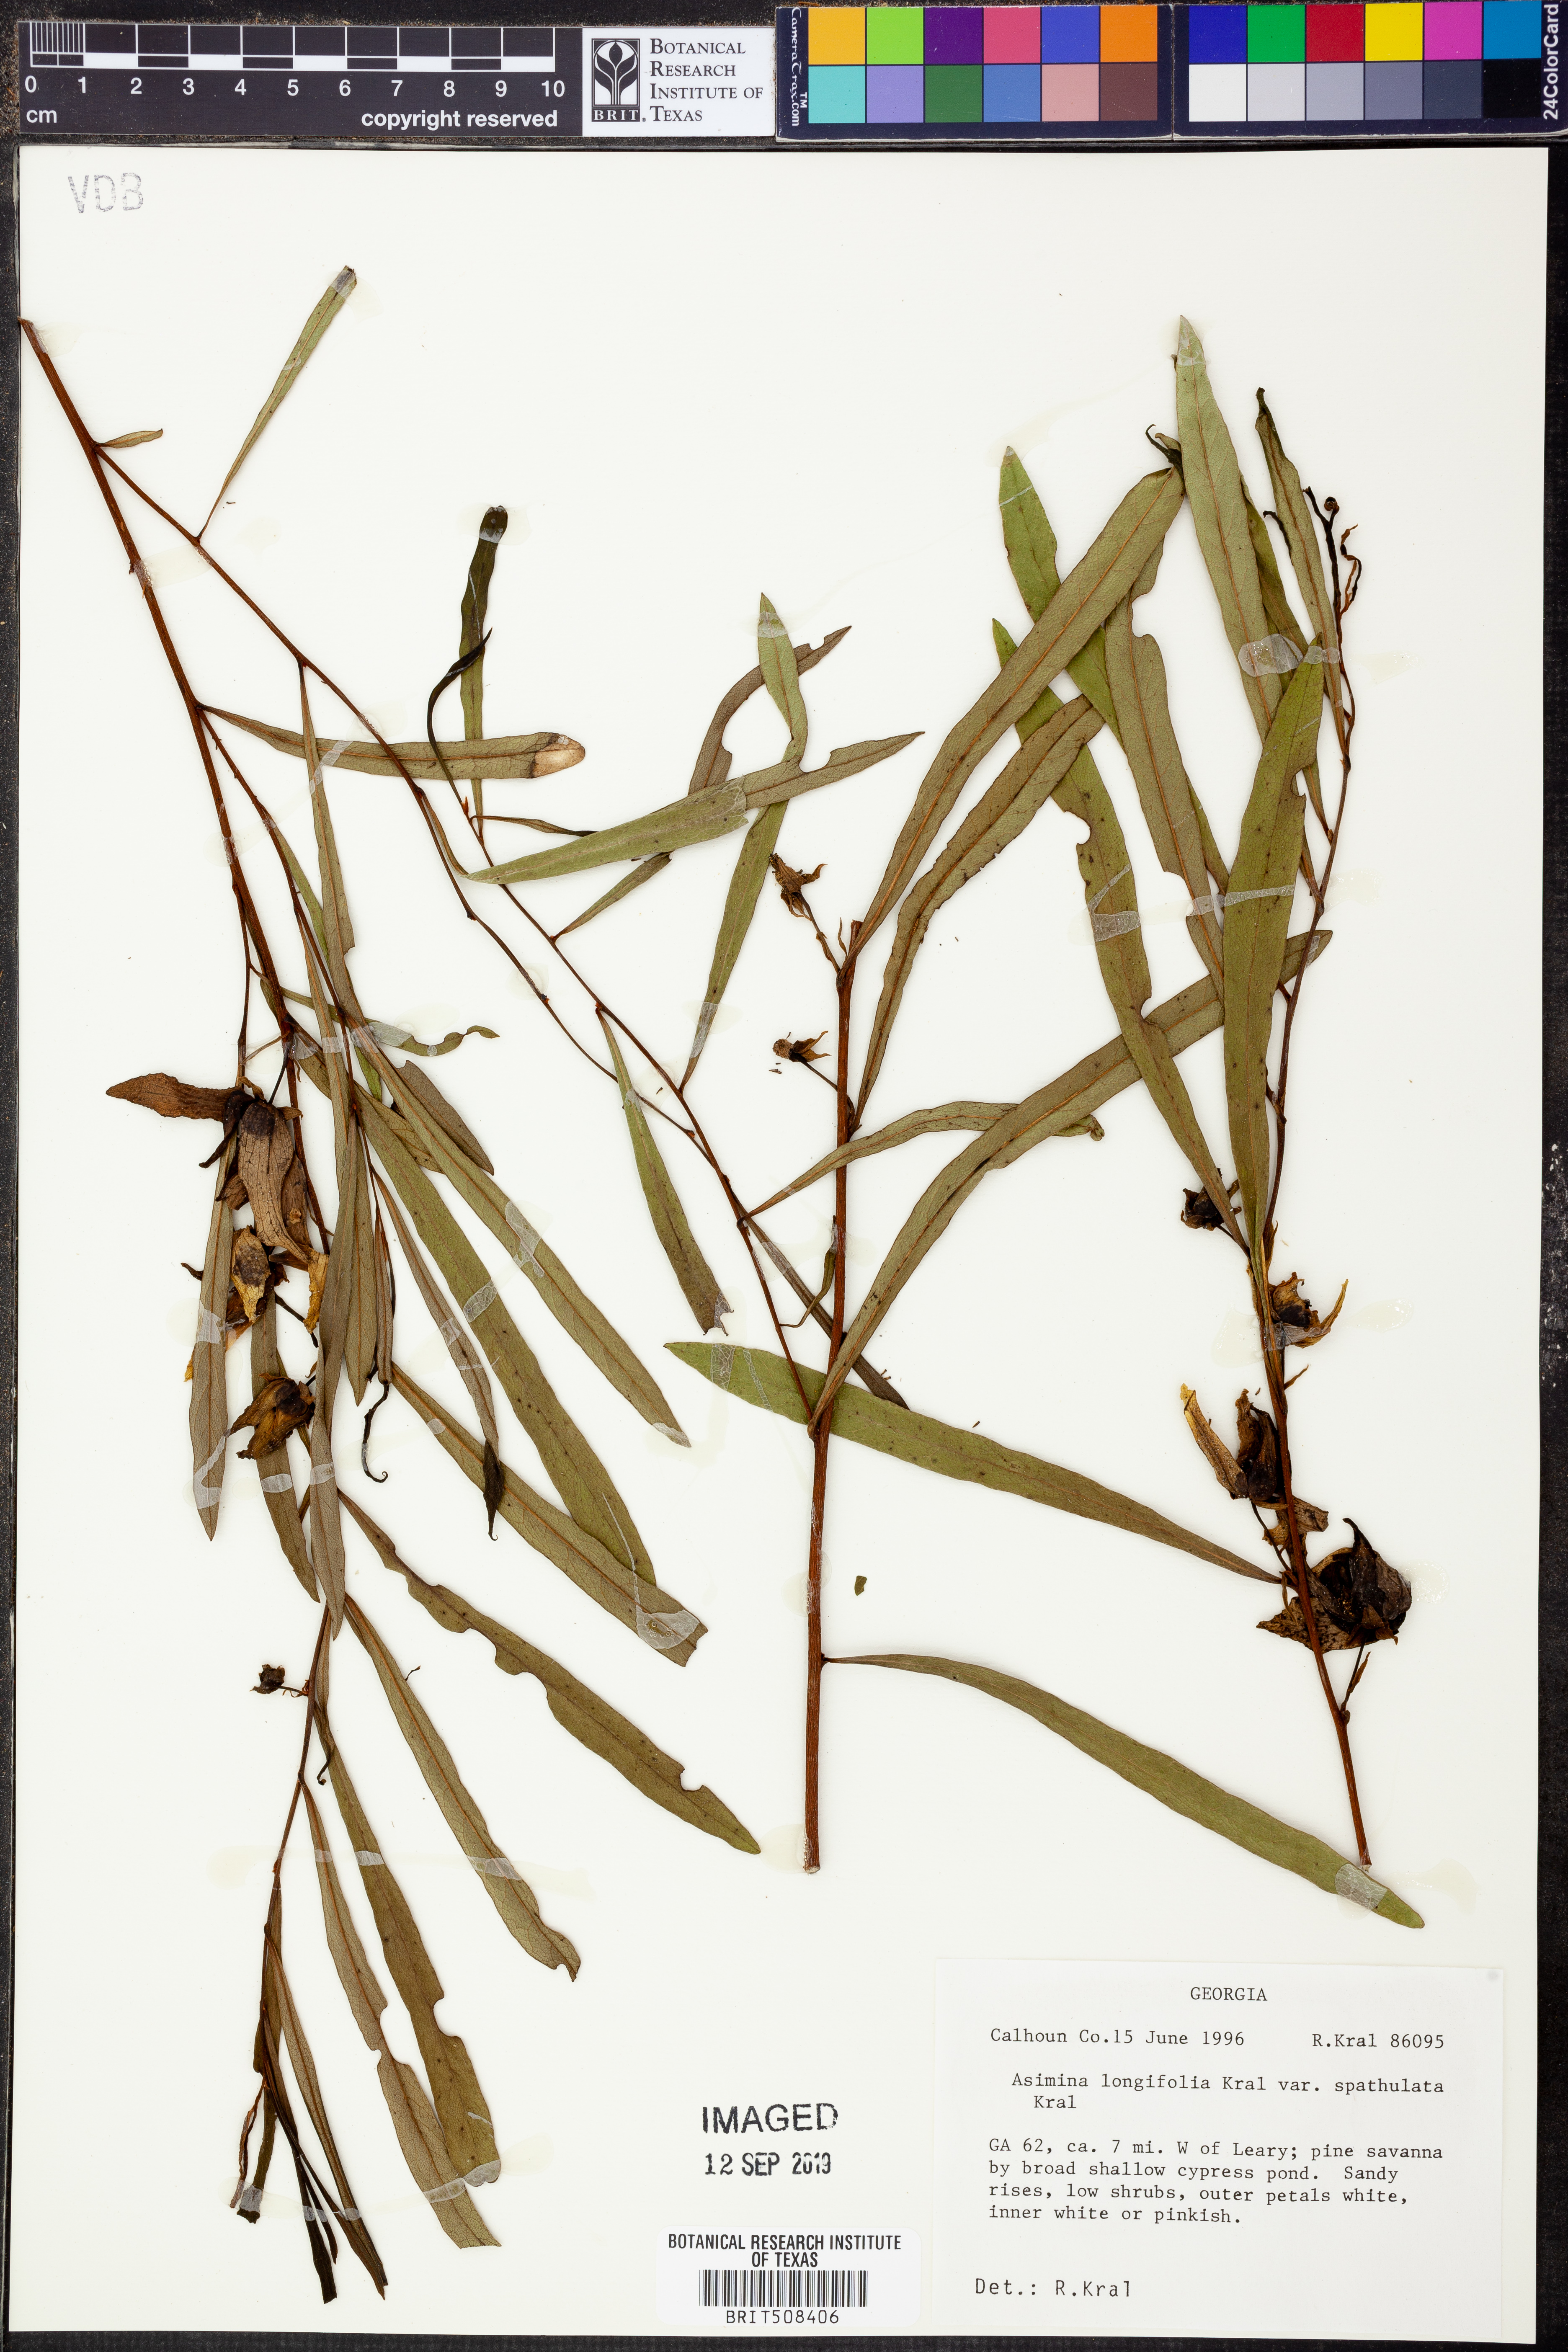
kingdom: Plantae
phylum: Tracheophyta
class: Magnoliopsida
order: Magnoliales
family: Annonaceae
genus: Asimina
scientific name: Asimina longifolia
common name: Polecatbush
